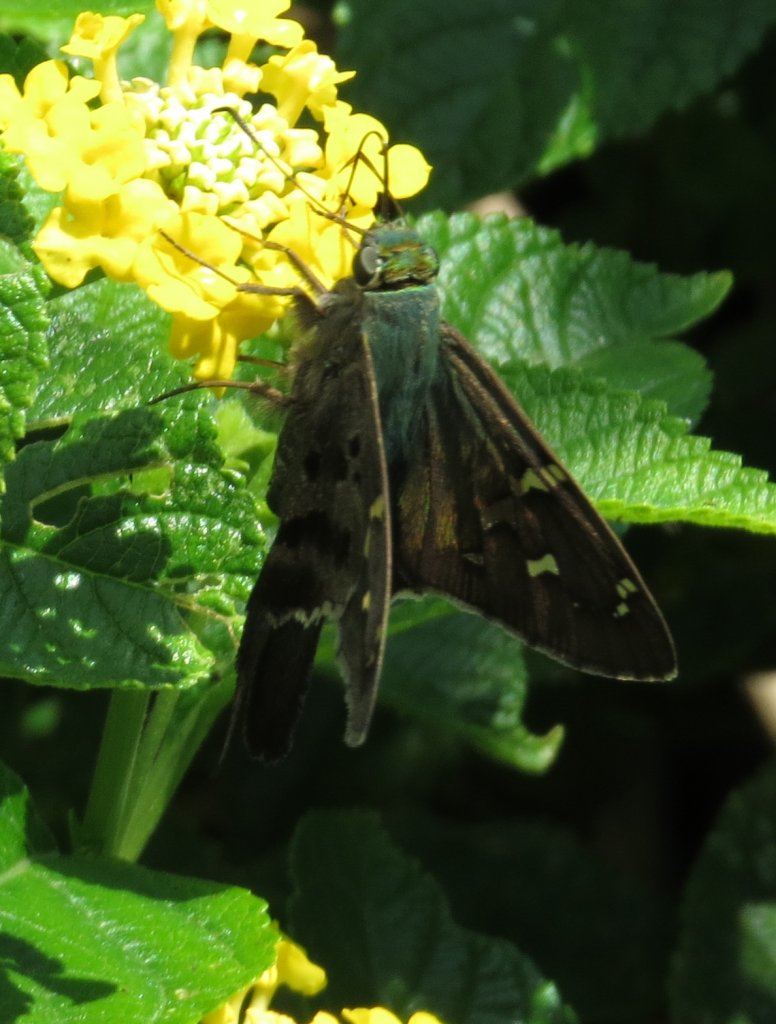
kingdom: Animalia
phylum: Arthropoda
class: Insecta
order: Lepidoptera
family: Hesperiidae
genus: Urbanus
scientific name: Urbanus proteus
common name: Long-tailed Skipper
